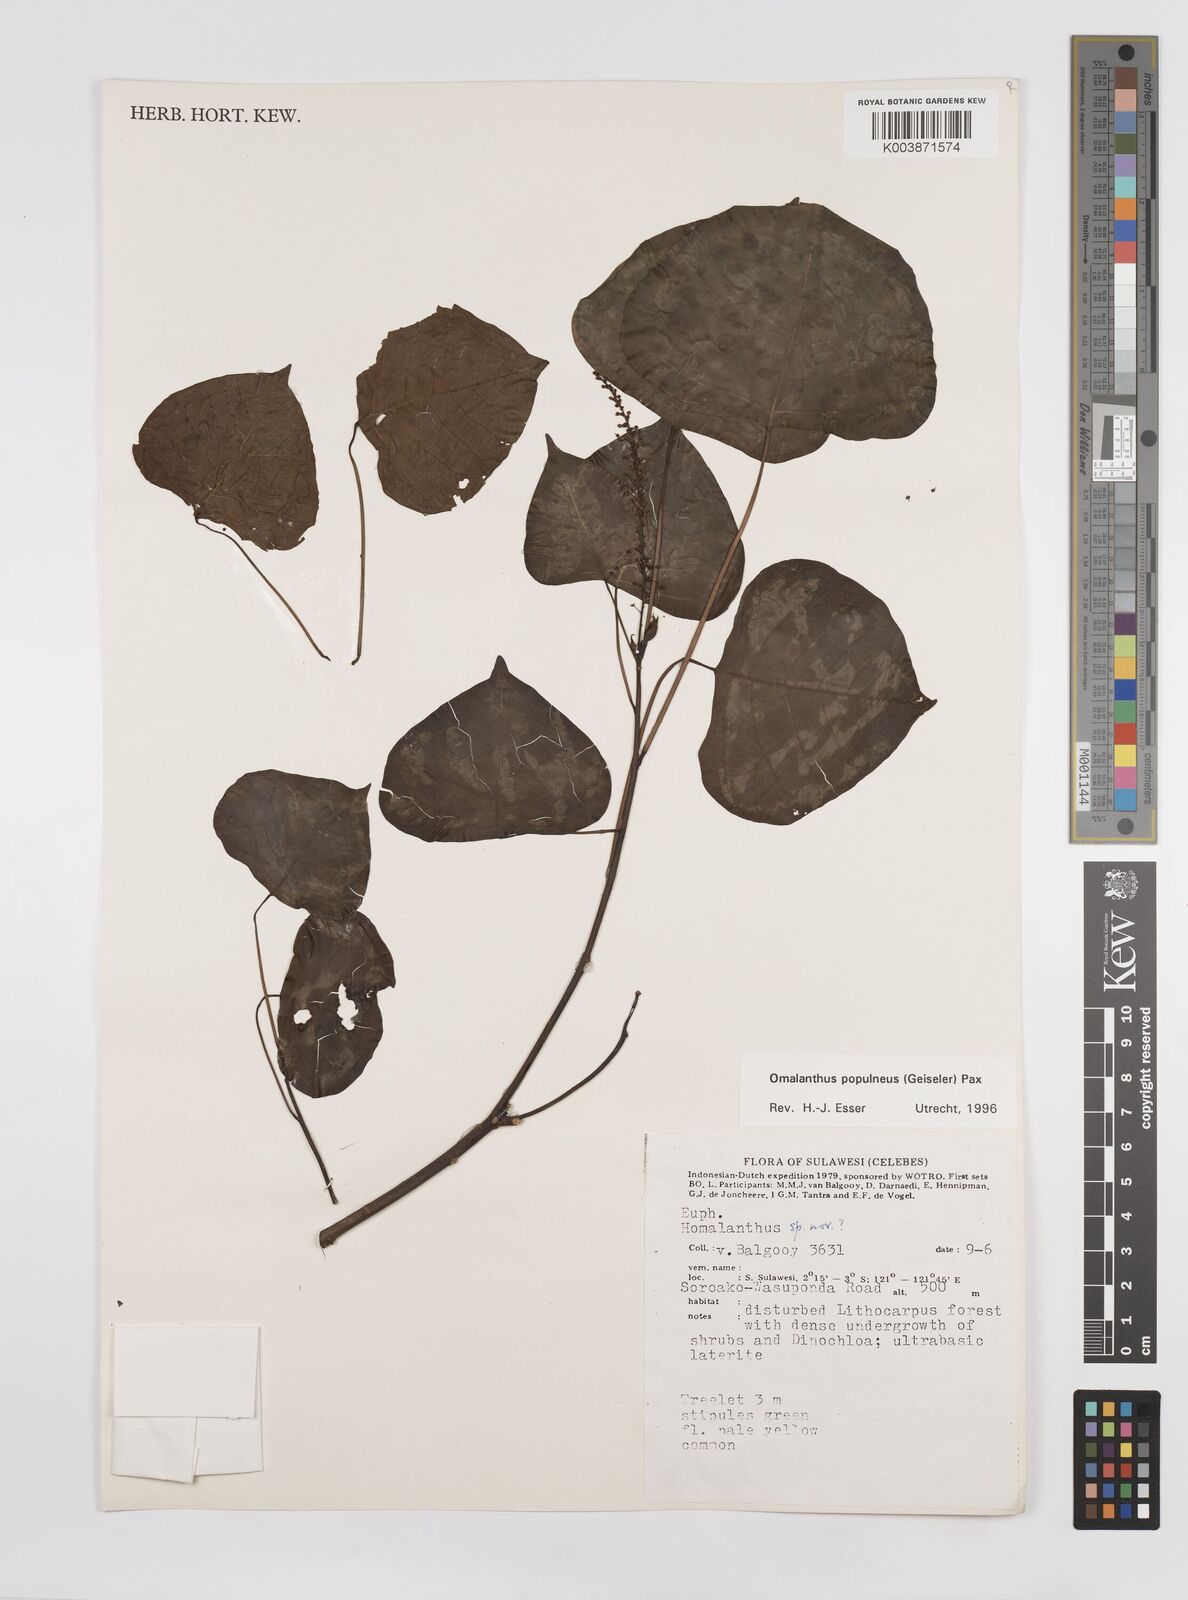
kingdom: Plantae
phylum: Tracheophyta
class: Magnoliopsida
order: Malpighiales
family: Euphorbiaceae
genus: Homalanthus
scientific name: Homalanthus populneus
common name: Spurge
